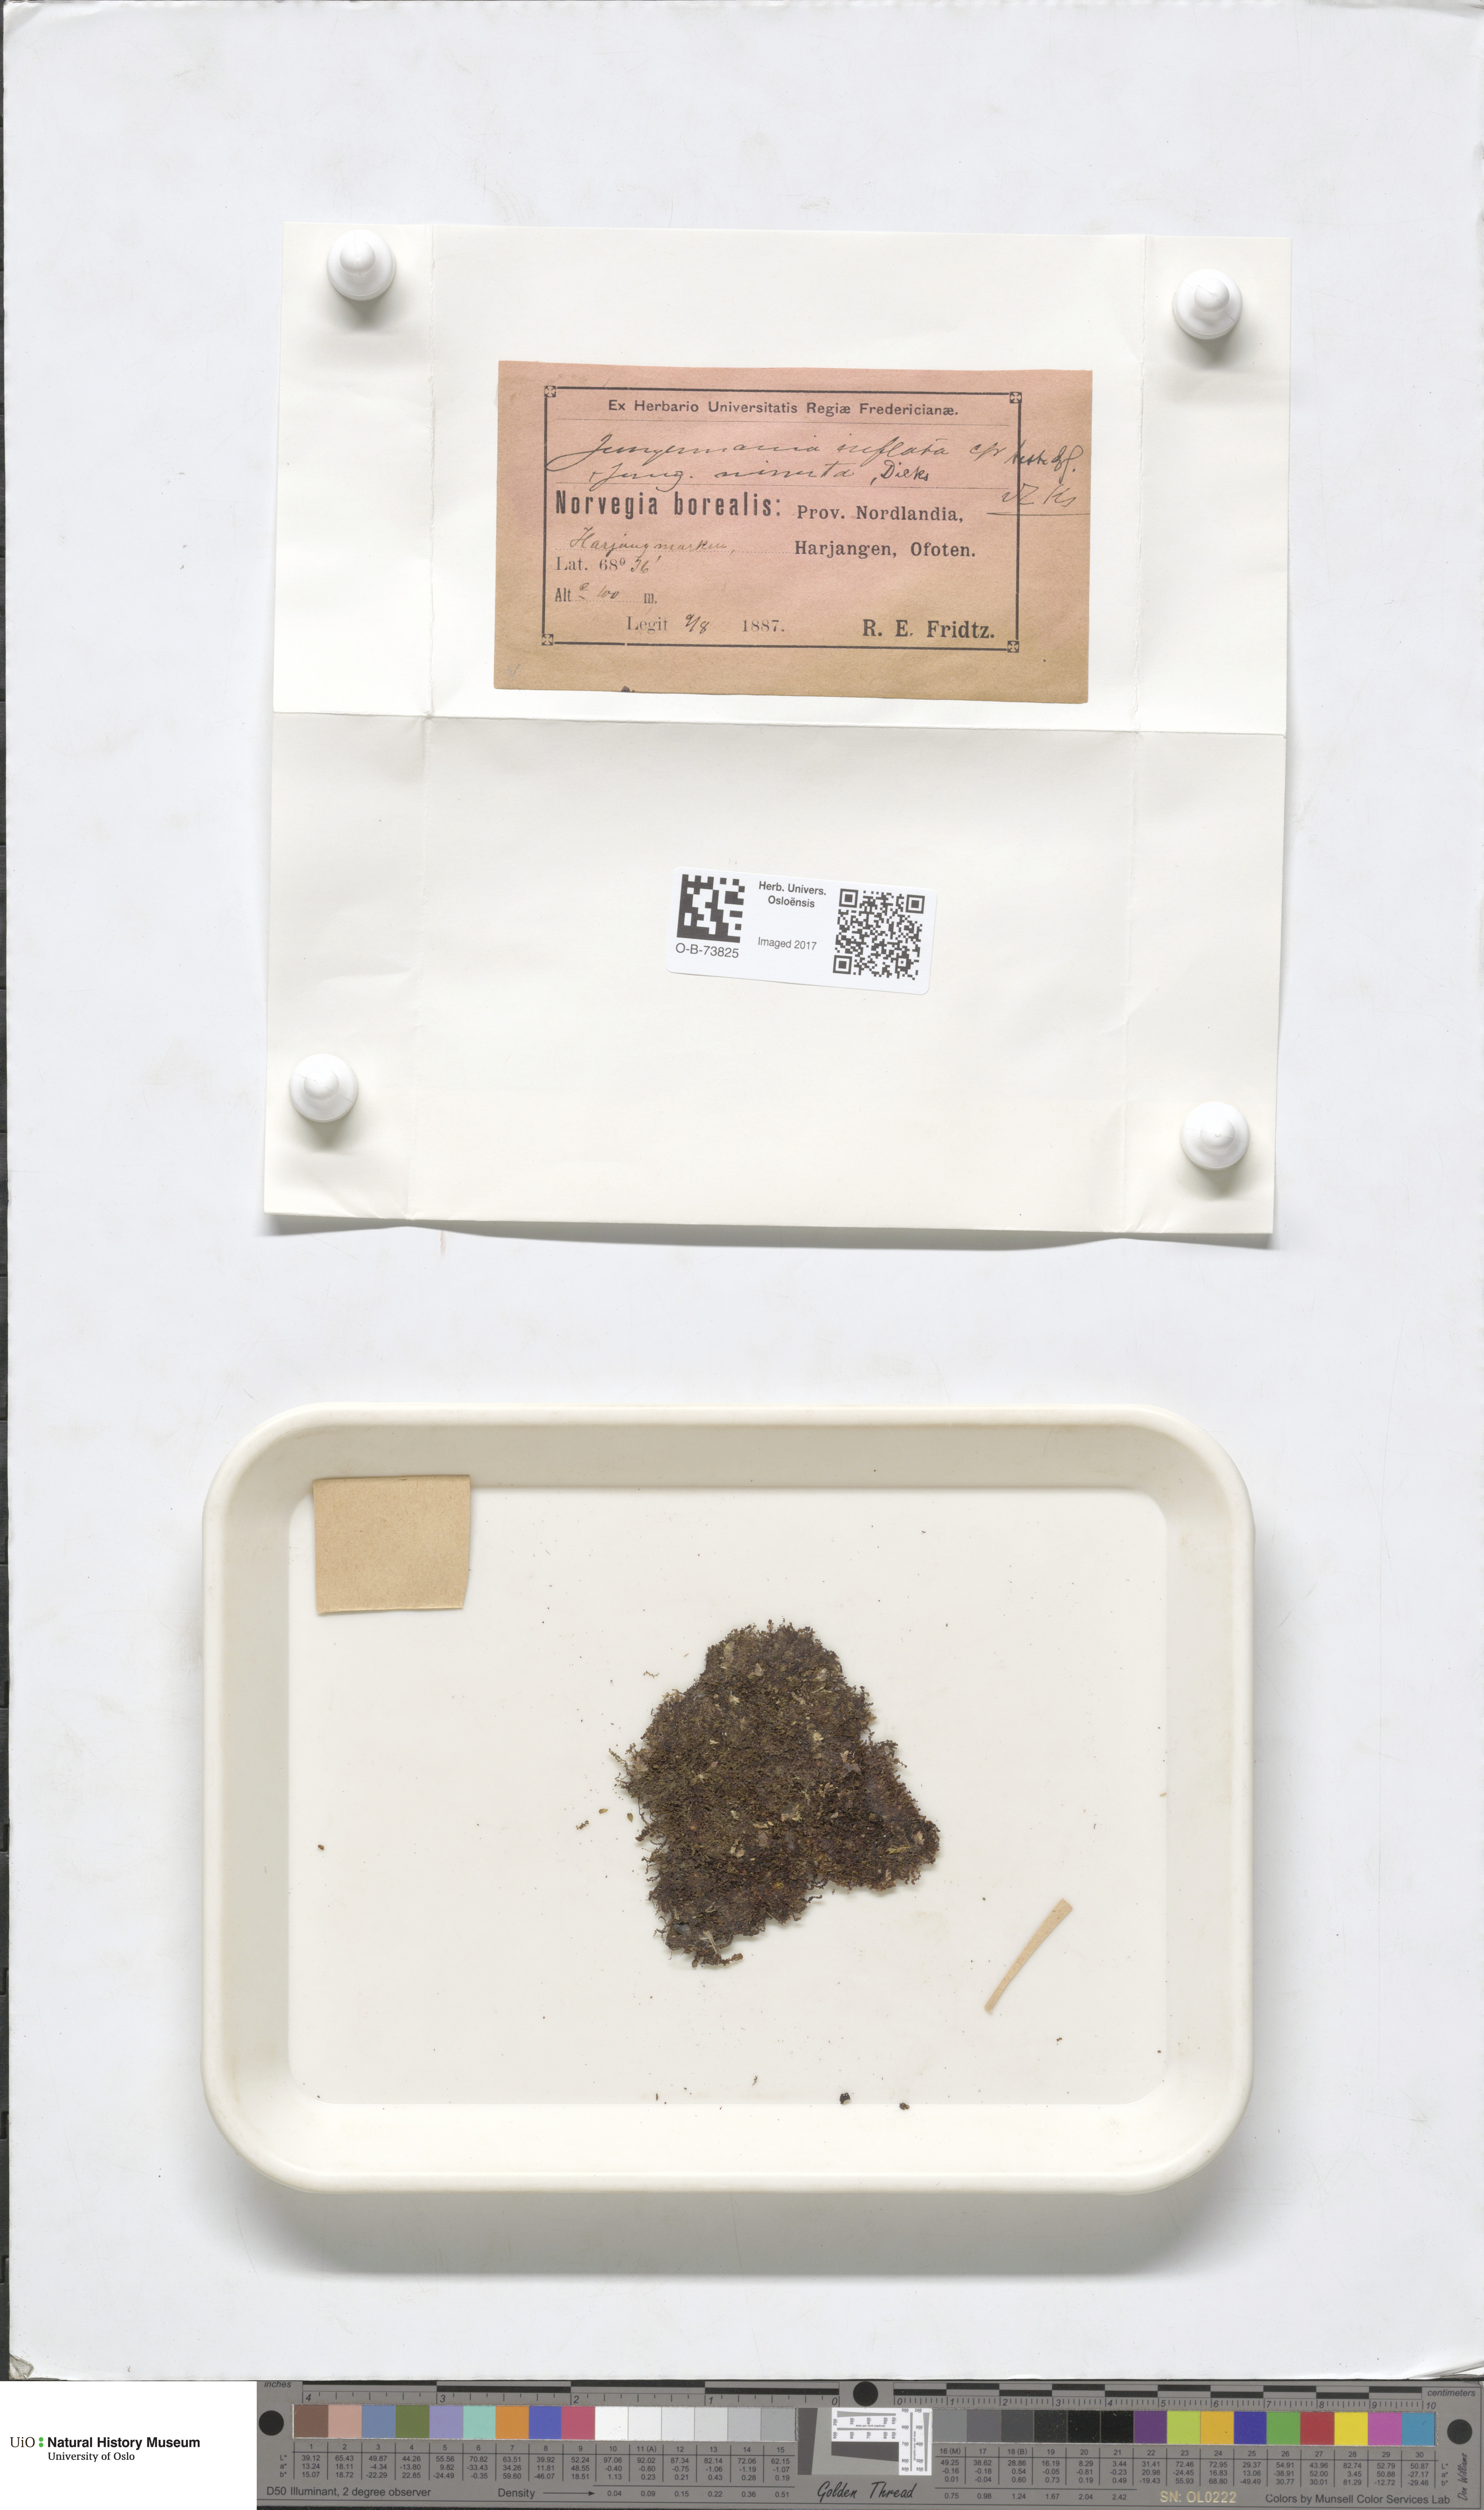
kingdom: Plantae
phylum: Marchantiophyta
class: Jungermanniopsida
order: Jungermanniales
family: Anastrophyllaceae
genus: Gymnocolea
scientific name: Gymnocolea inflata
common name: Inflated notchwort
